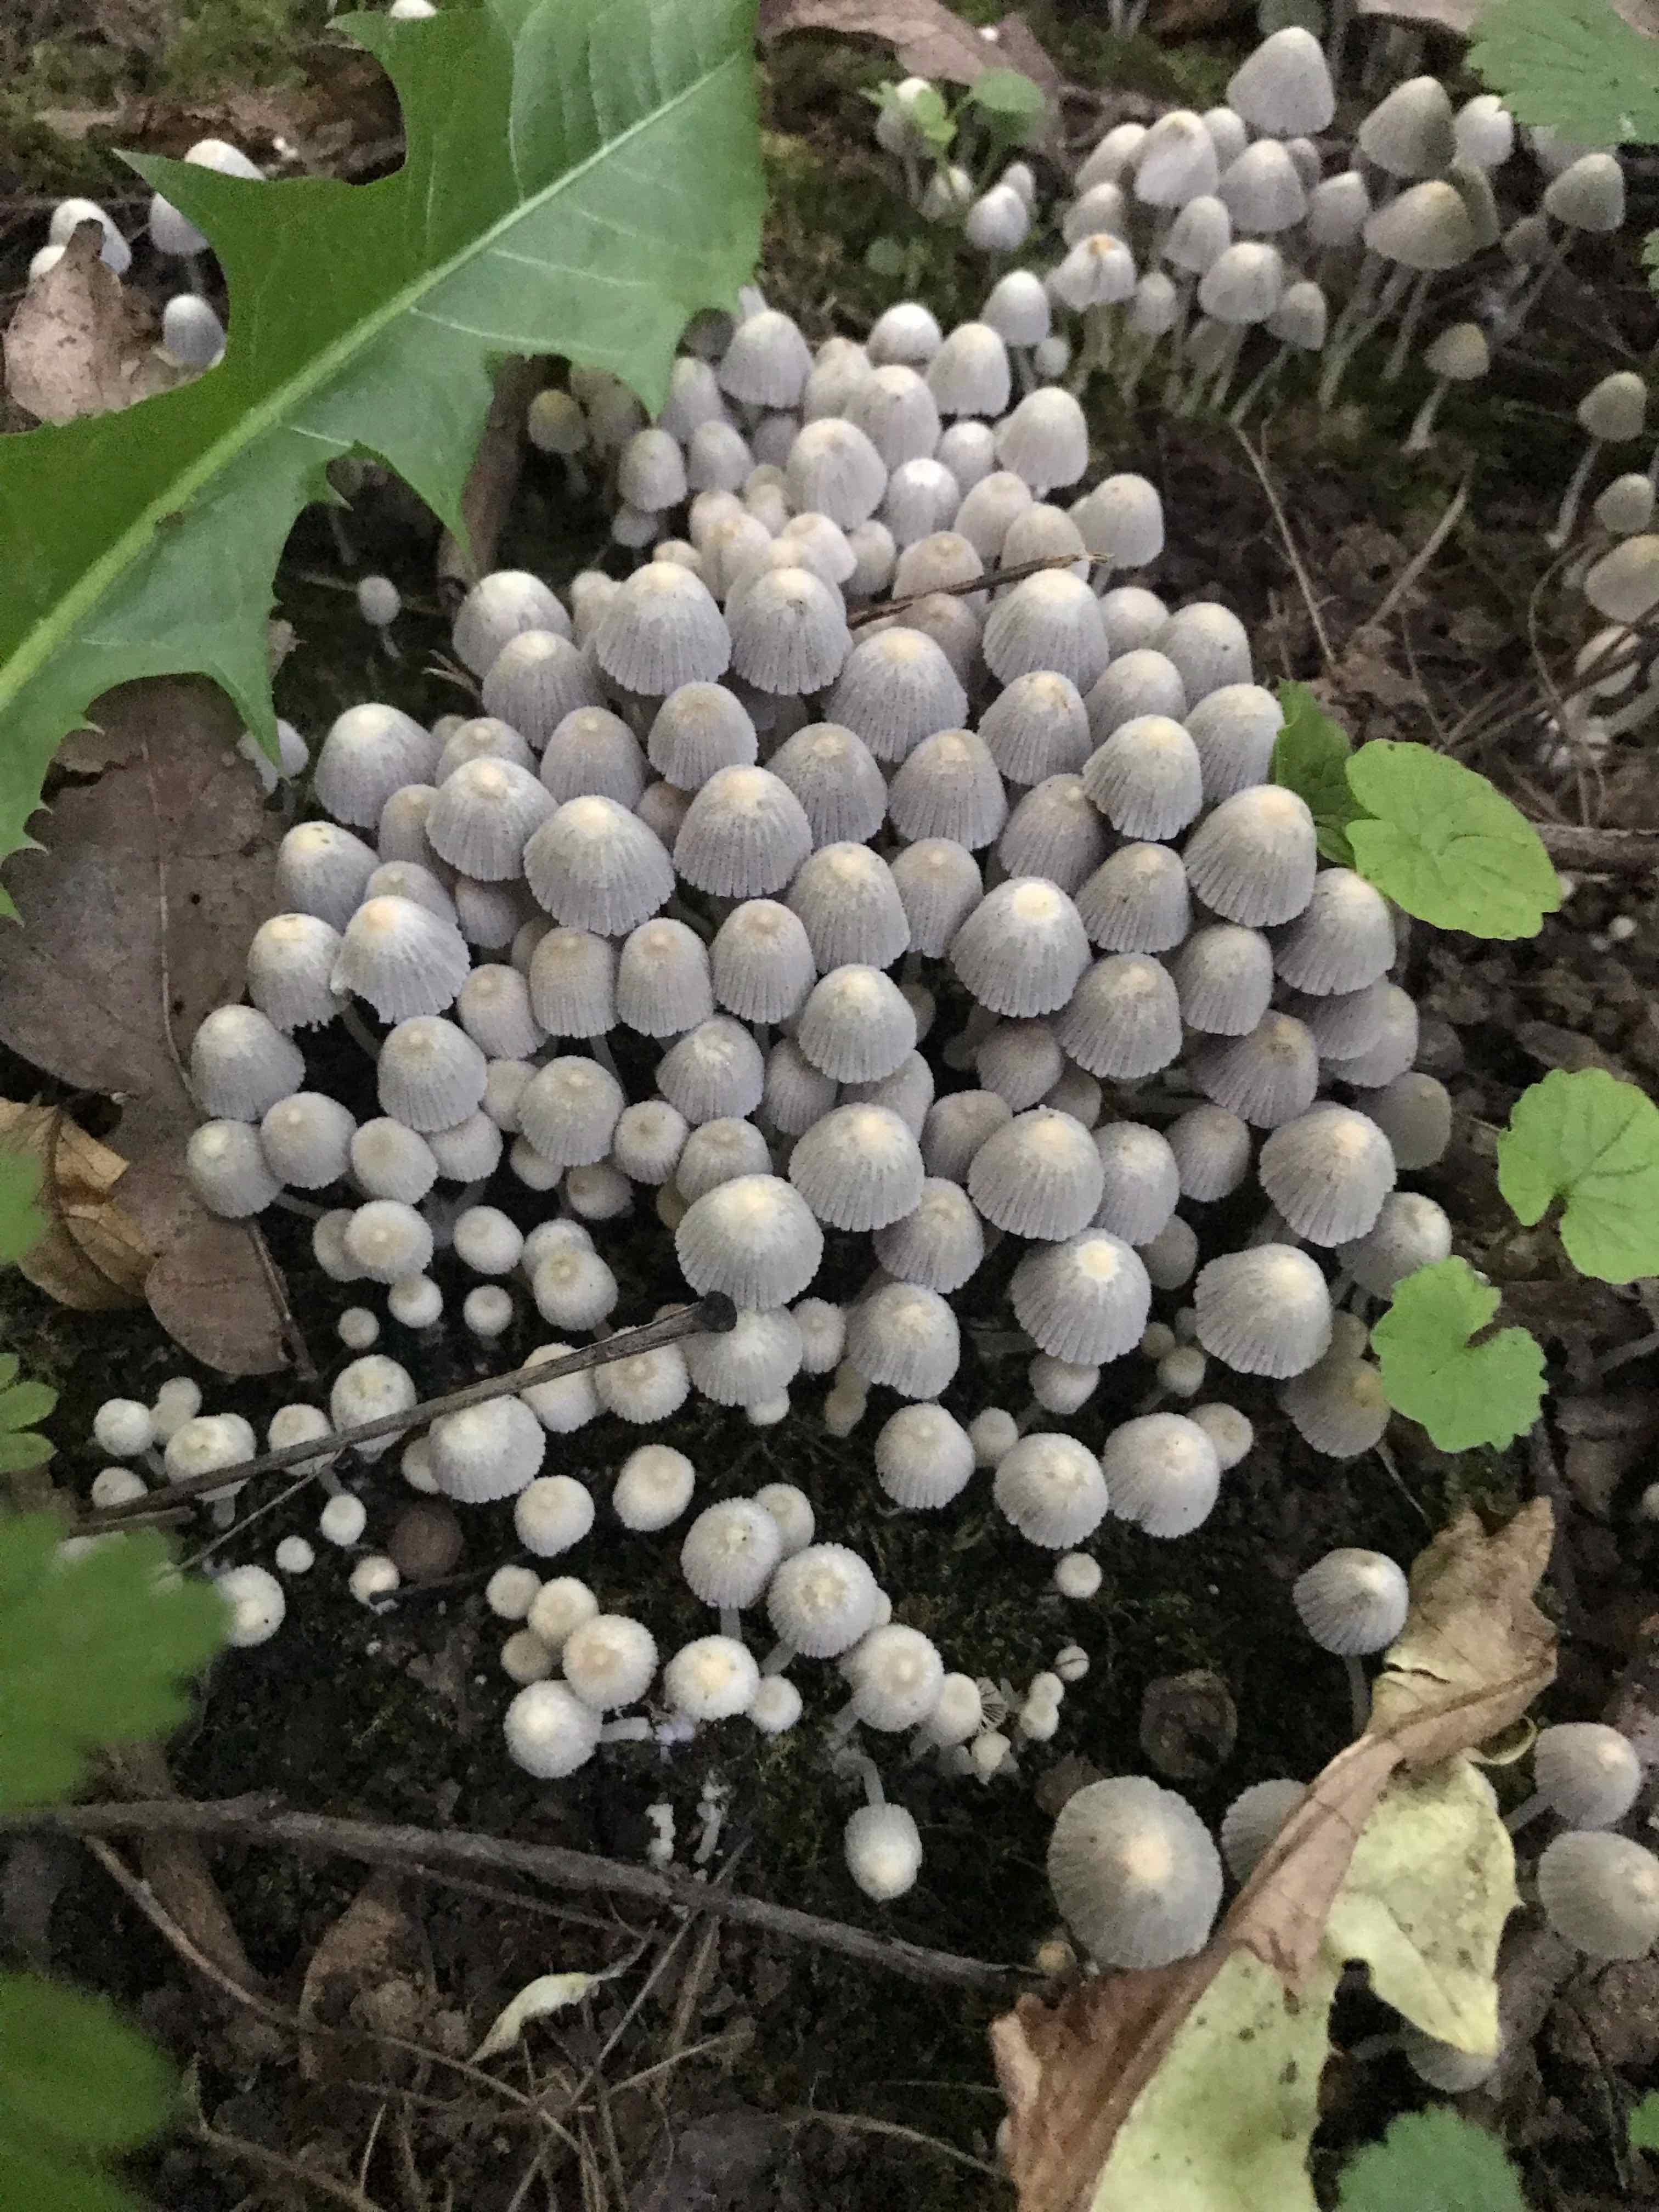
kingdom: Fungi
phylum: Basidiomycota
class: Agaricomycetes
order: Agaricales
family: Psathyrellaceae
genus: Coprinellus
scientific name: Coprinellus disseminatus
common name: bredsået blækhat
